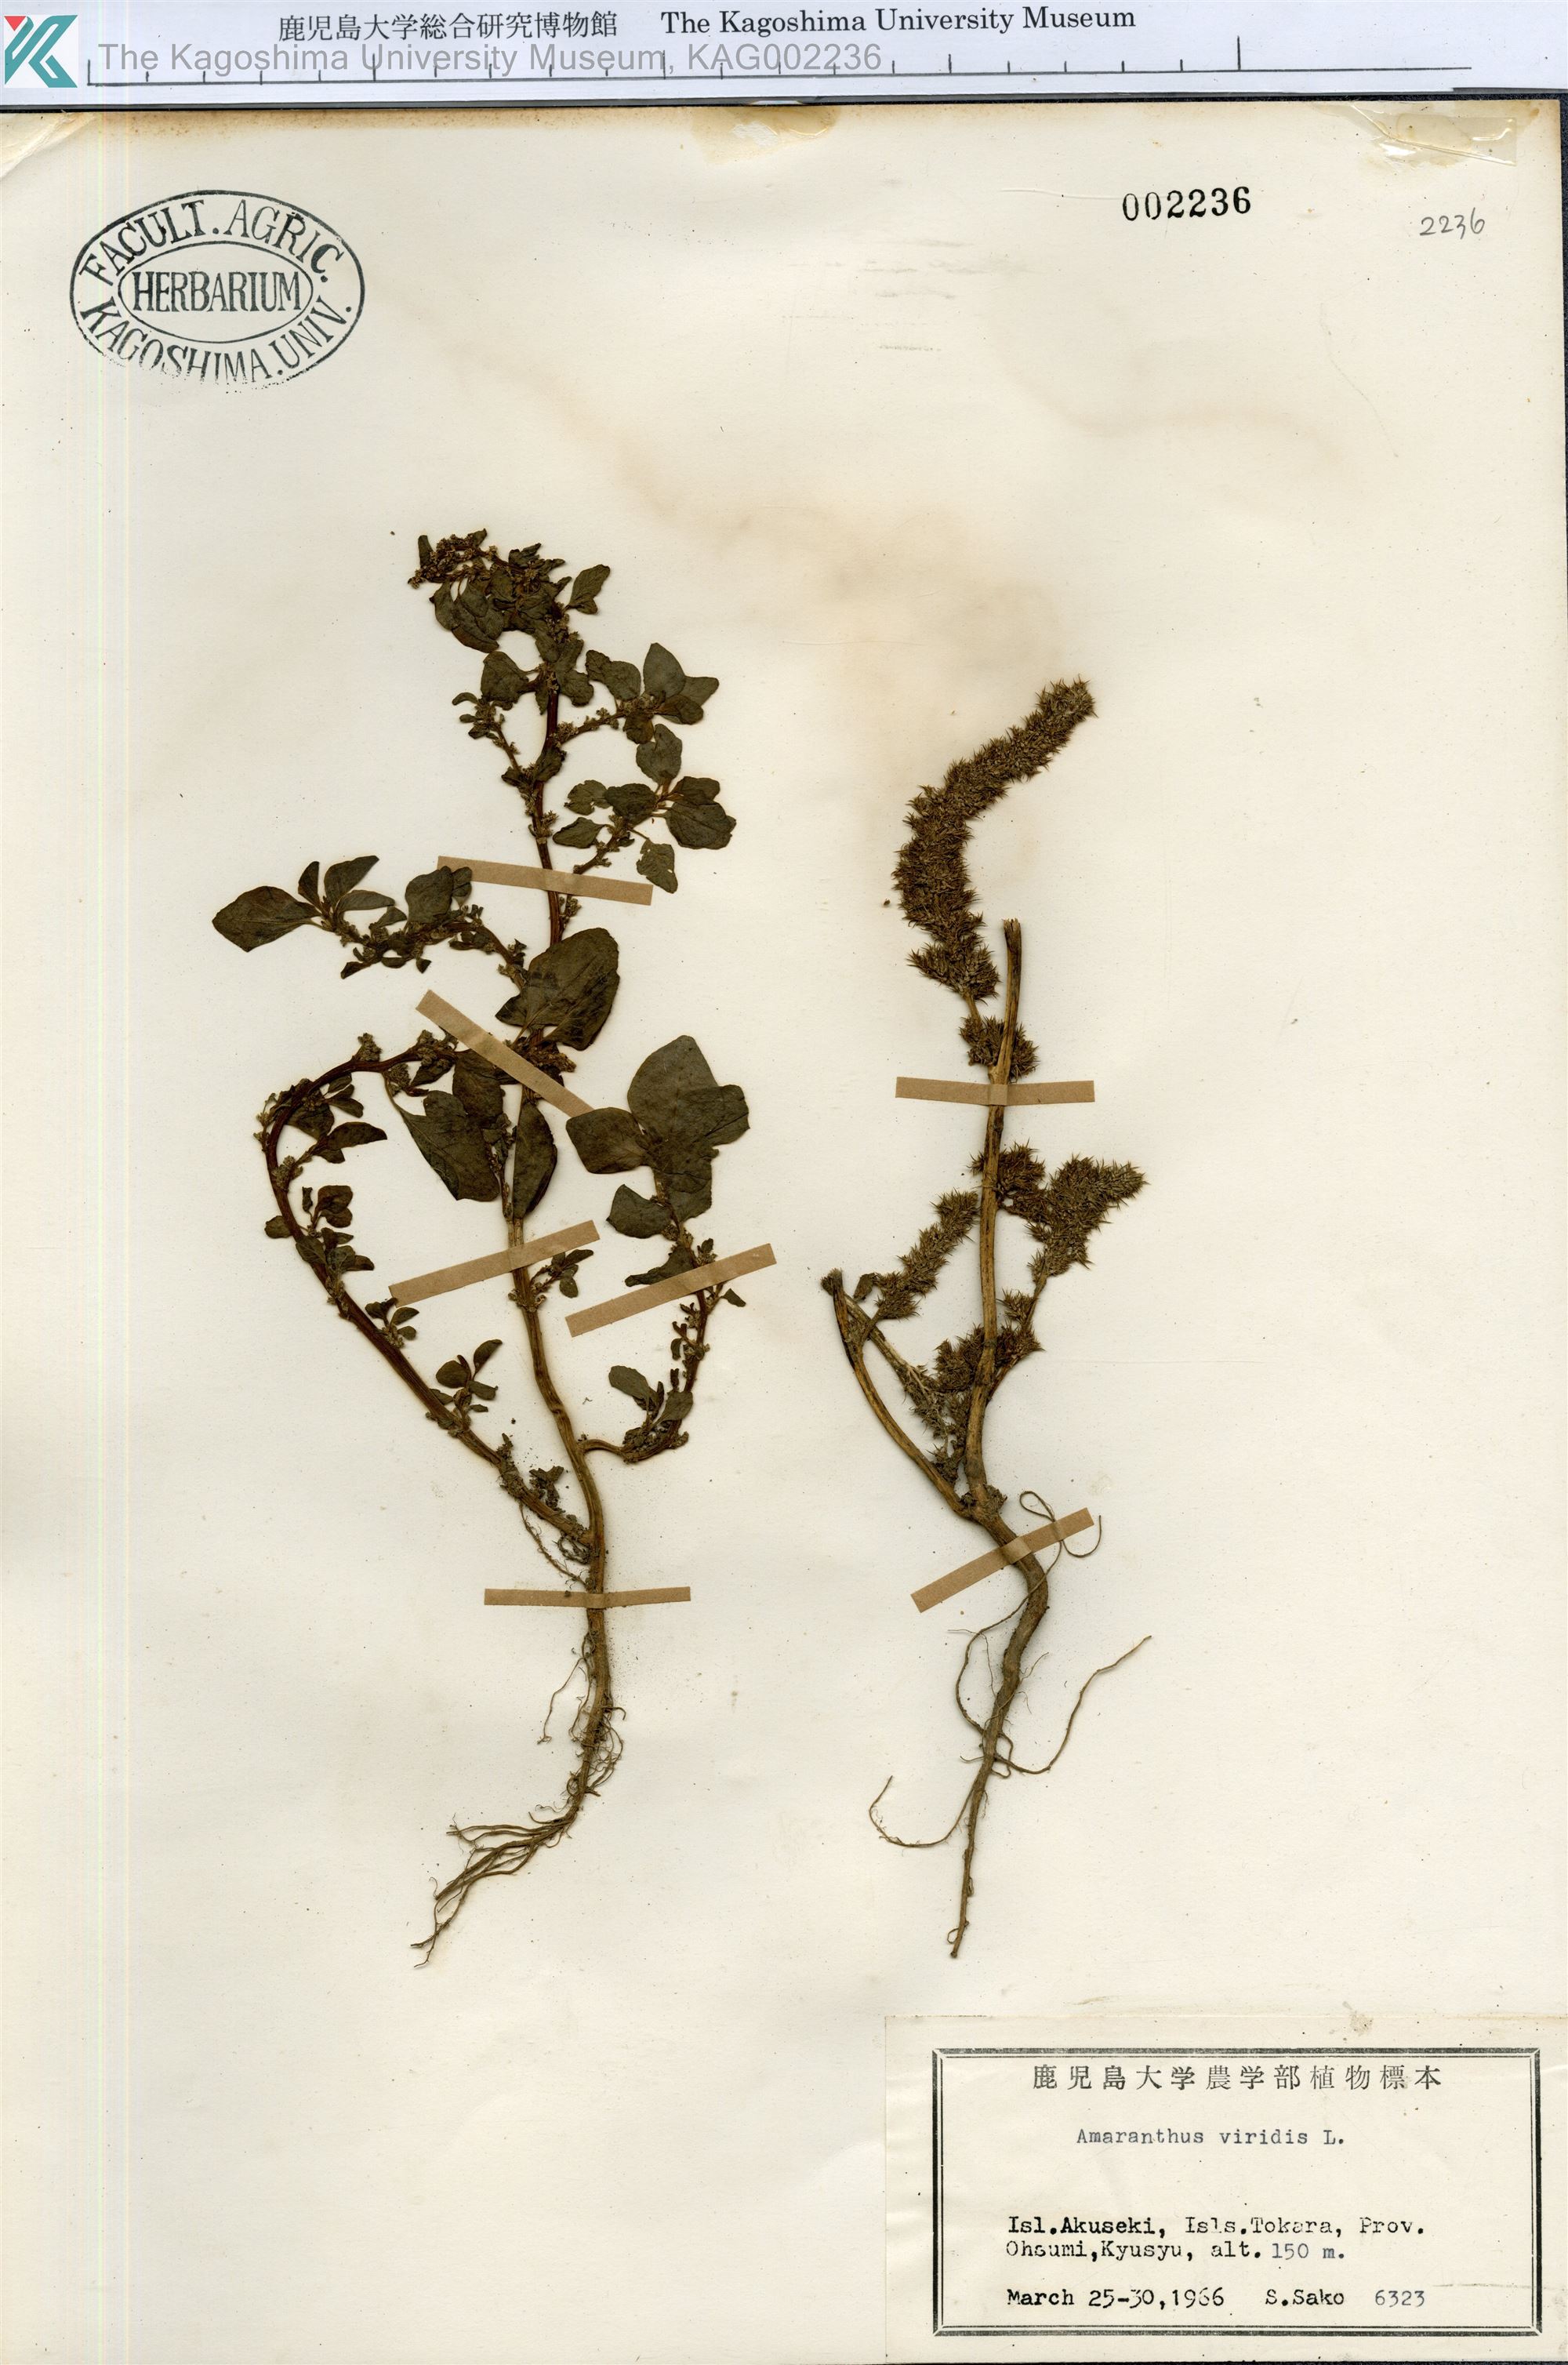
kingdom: Plantae
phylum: Tracheophyta
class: Magnoliopsida
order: Caryophyllales
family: Amaranthaceae
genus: Amaranthus
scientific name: Amaranthus viridis
